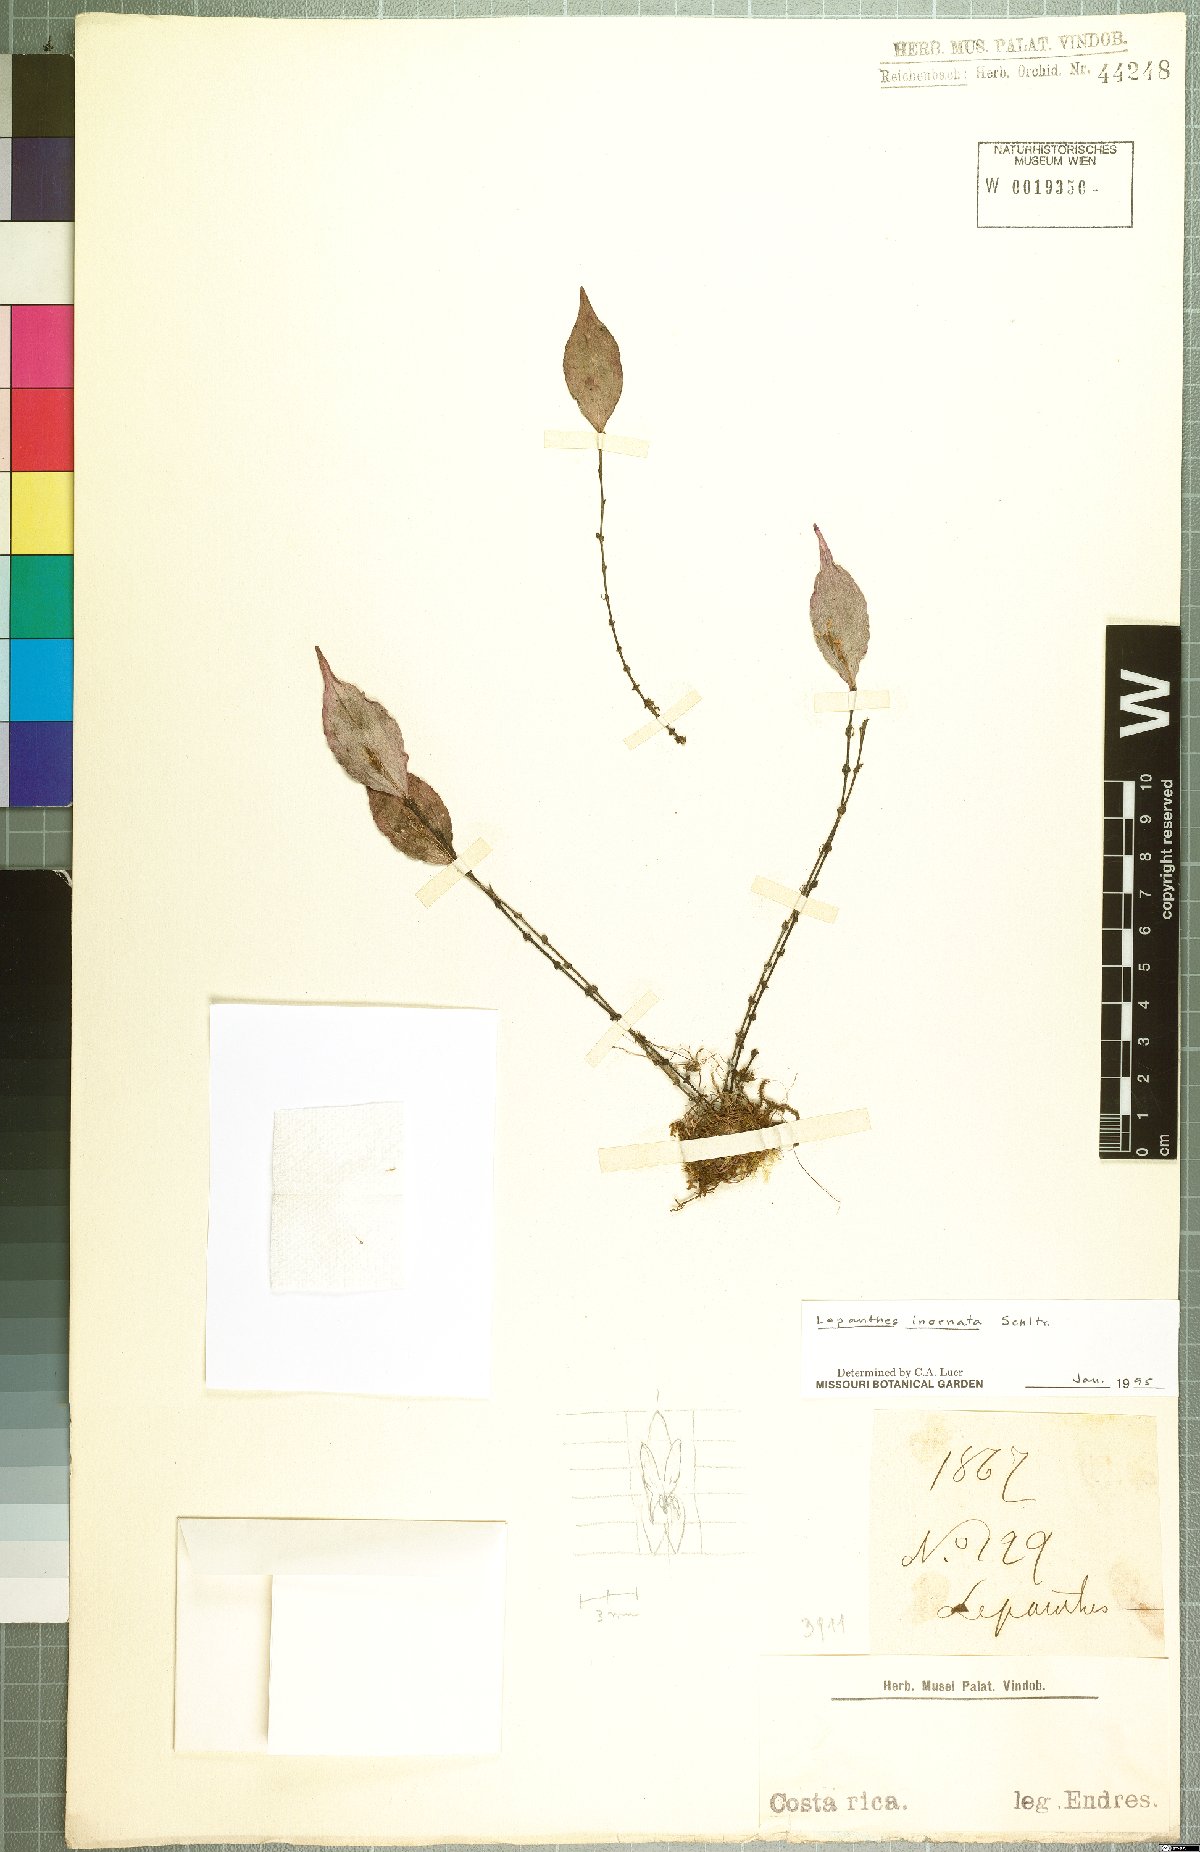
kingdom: Plantae
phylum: Tracheophyta
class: Liliopsida
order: Asparagales
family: Orchidaceae
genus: Lepanthes
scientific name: Lepanthes inornata
